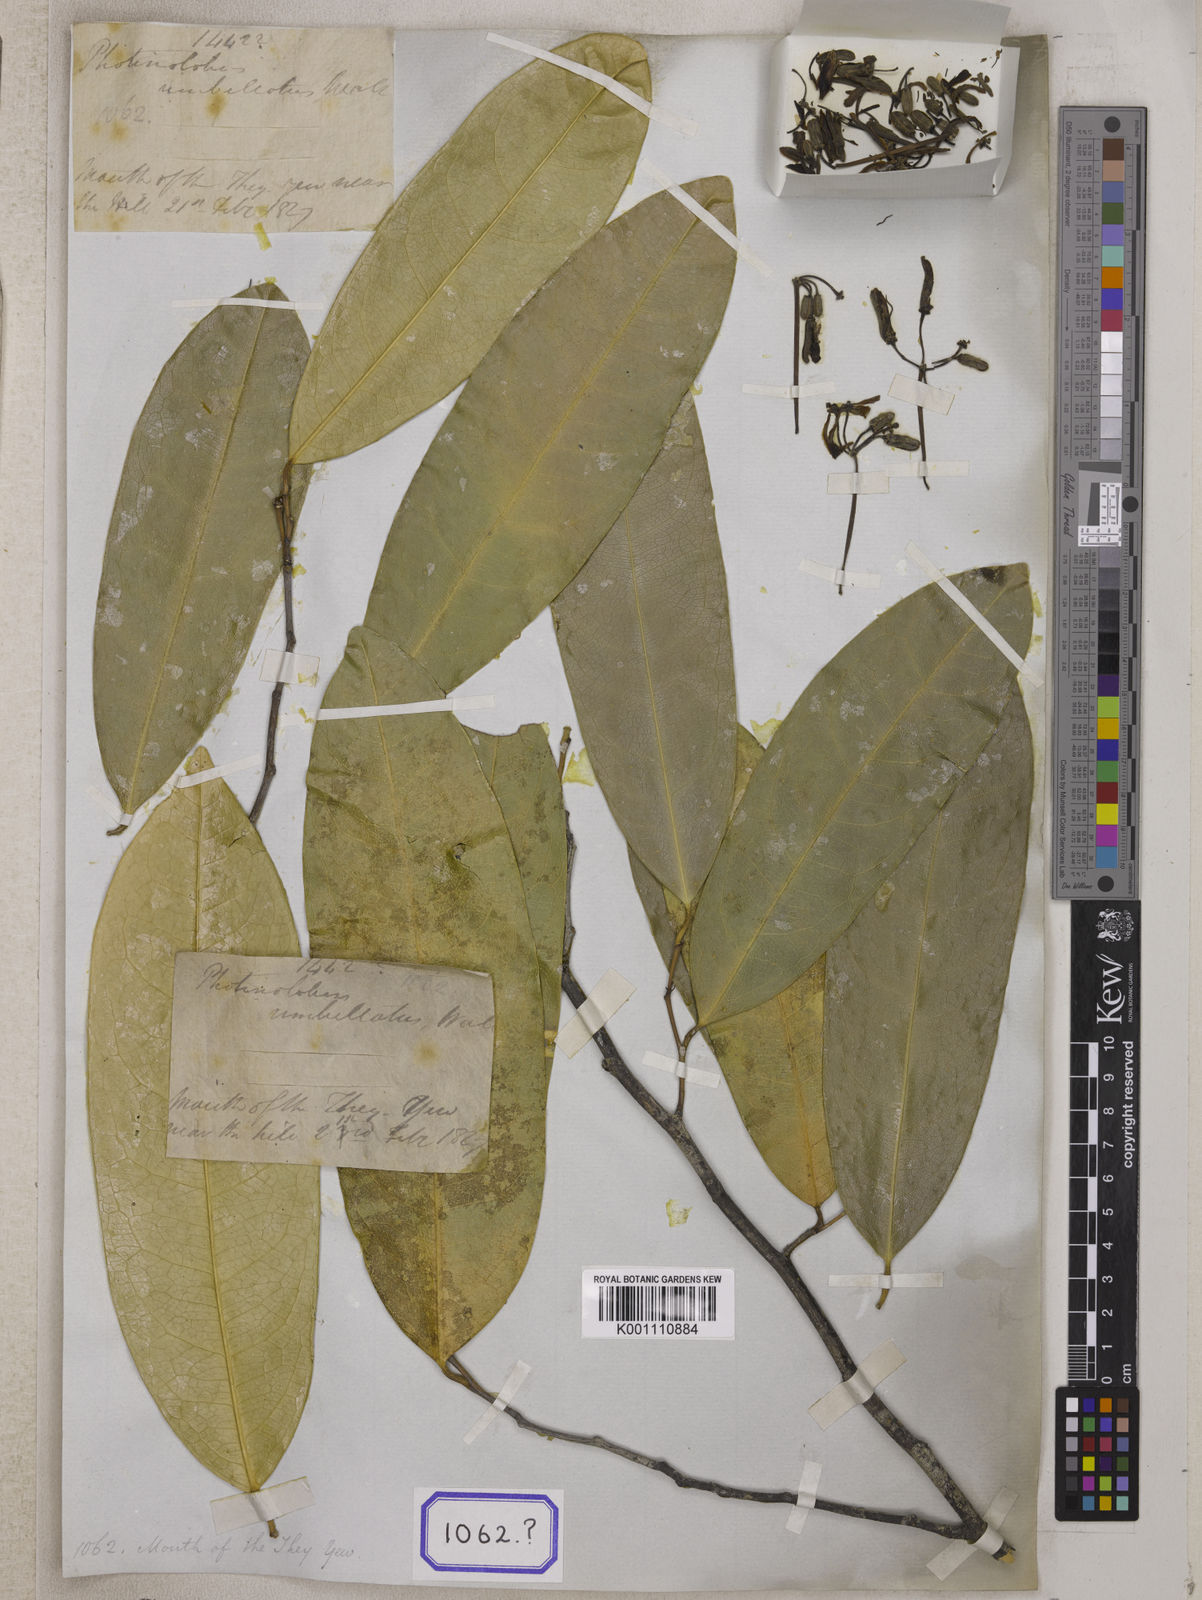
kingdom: Plantae
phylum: Tracheophyta
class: Magnoliopsida
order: Sapindales
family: Simaroubaceae
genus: Samadera
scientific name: Samadera indica
